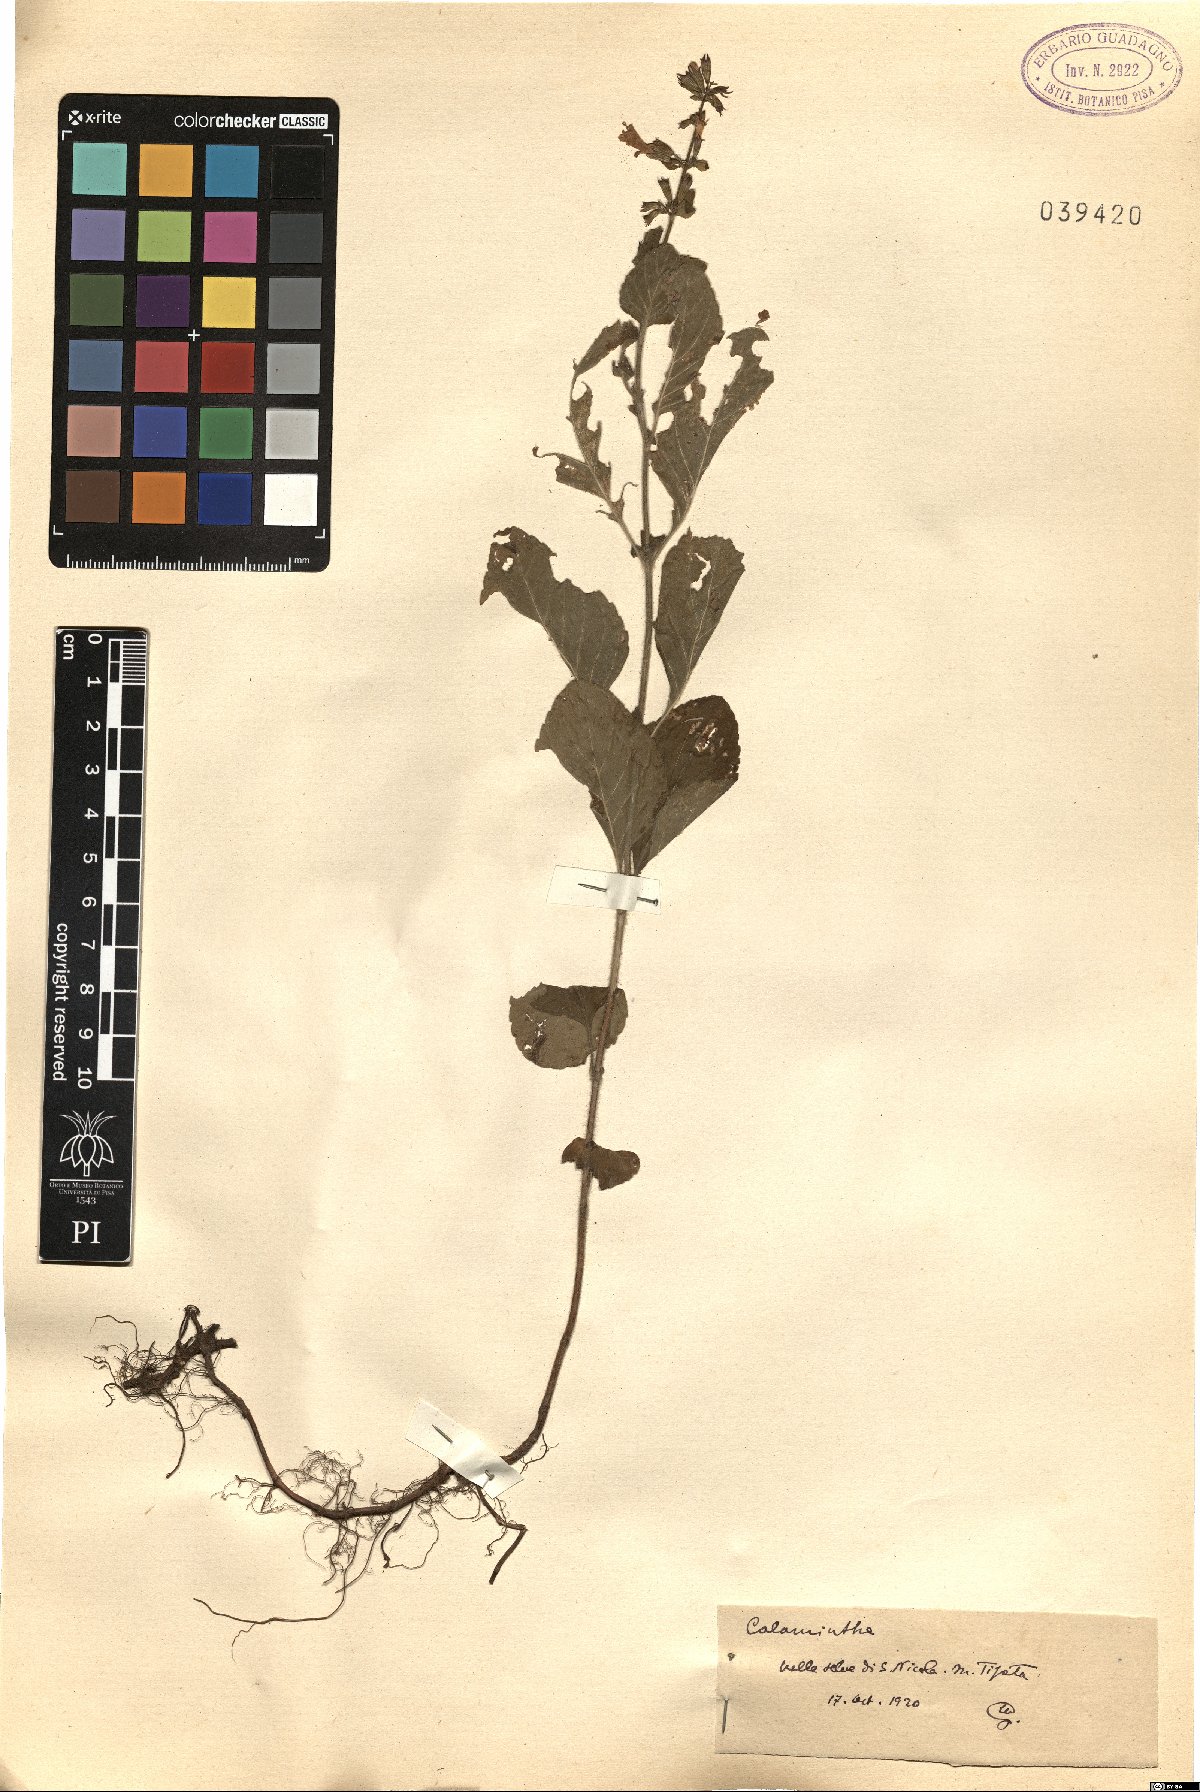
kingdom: Plantae
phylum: Tracheophyta
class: Magnoliopsida
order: Lamiales
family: Lamiaceae
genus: Calamintha
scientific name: Calamintha
